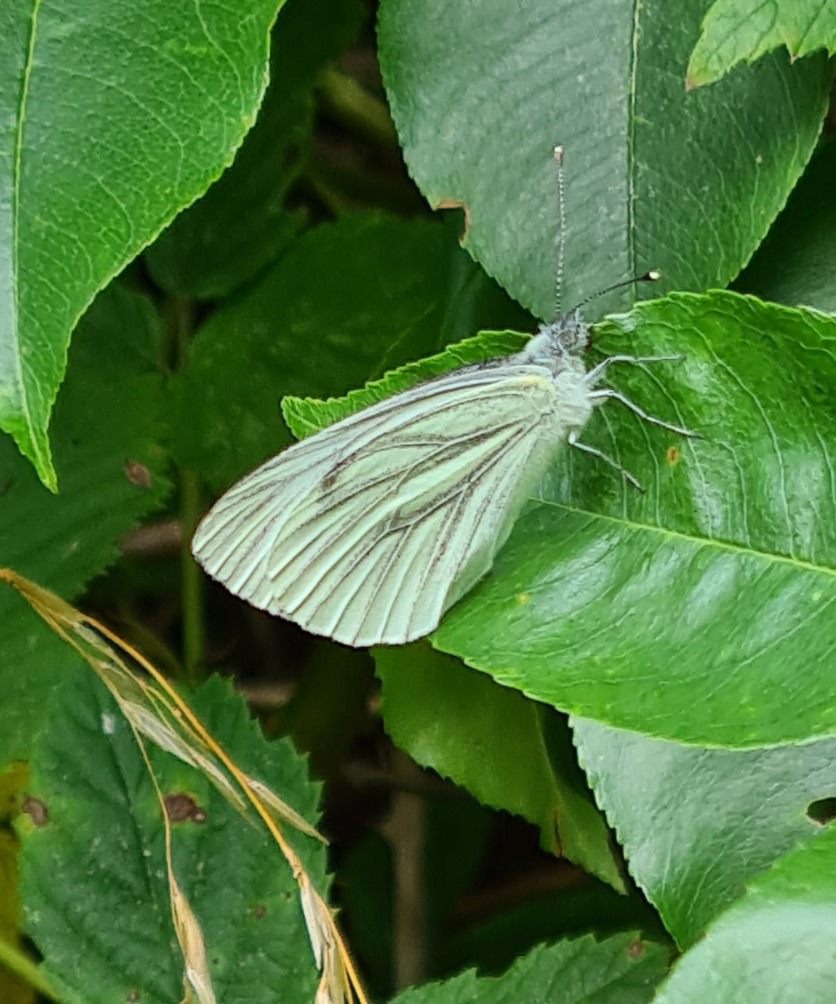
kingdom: Animalia
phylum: Arthropoda
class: Insecta
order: Lepidoptera
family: Pieridae
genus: Pieris
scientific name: Pieris napi
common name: Grønåret kålsommerfugl
